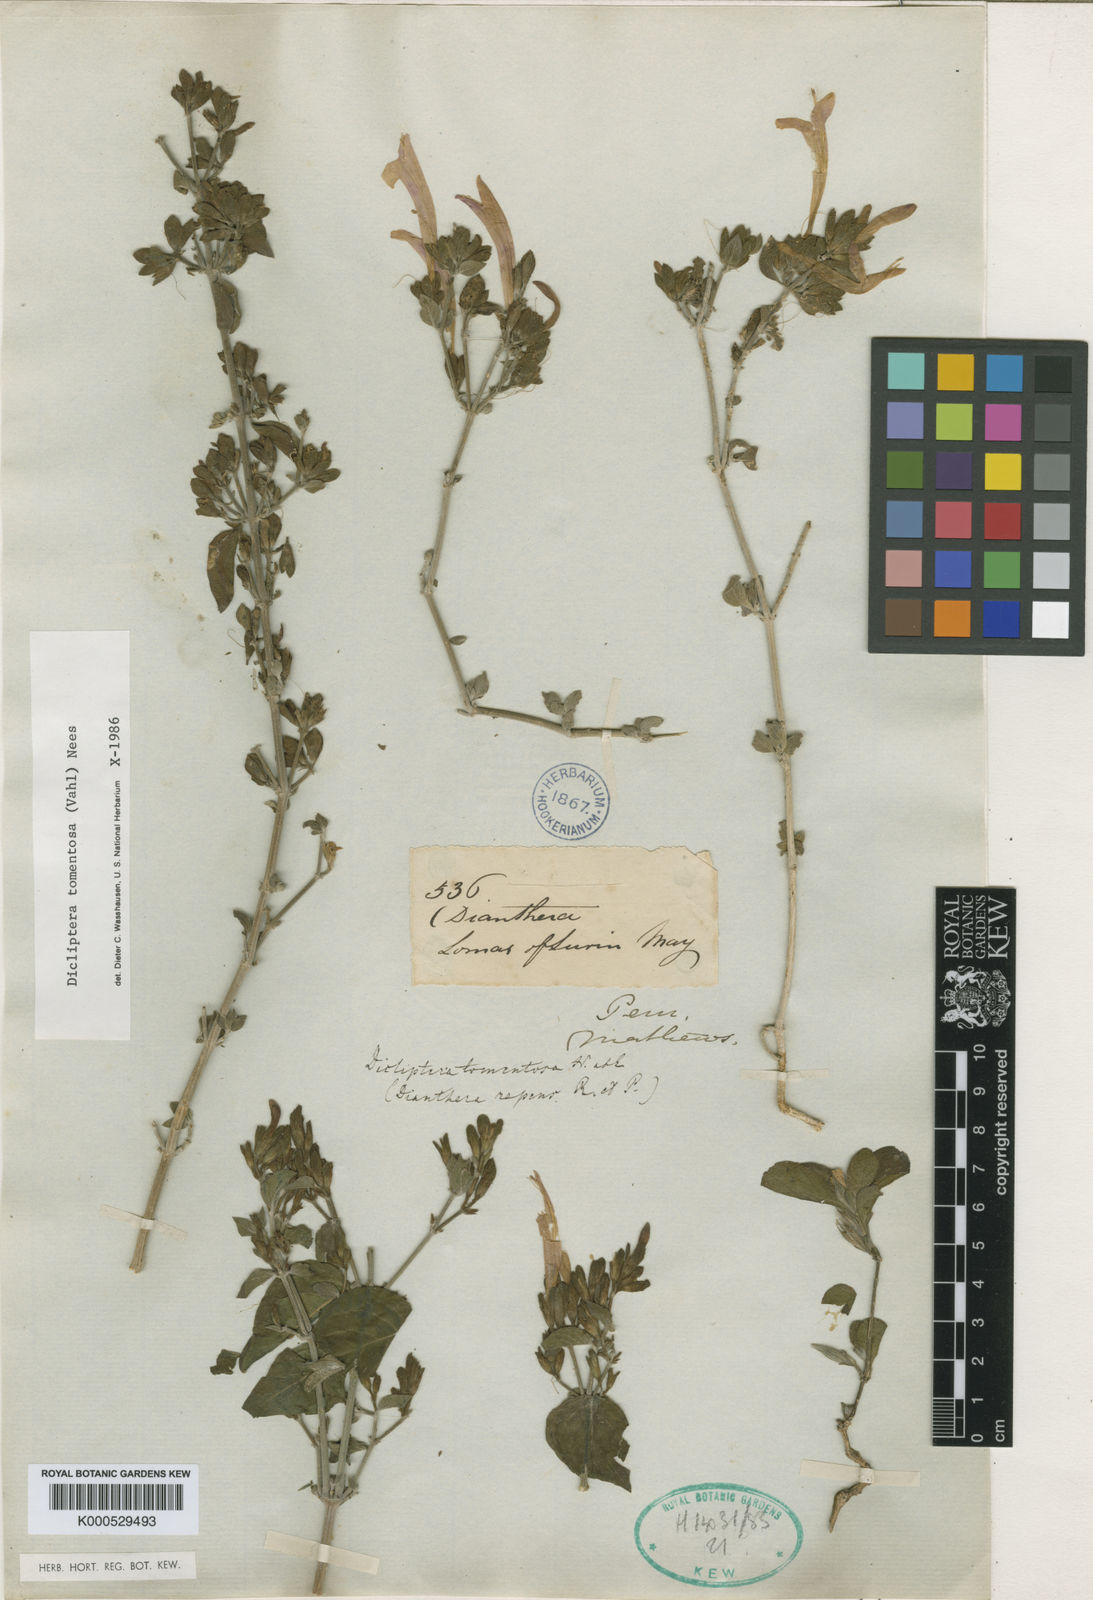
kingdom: Plantae
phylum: Tracheophyta
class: Magnoliopsida
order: Lamiales
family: Acanthaceae
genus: Dicliptera
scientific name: Dicliptera tomentosa
